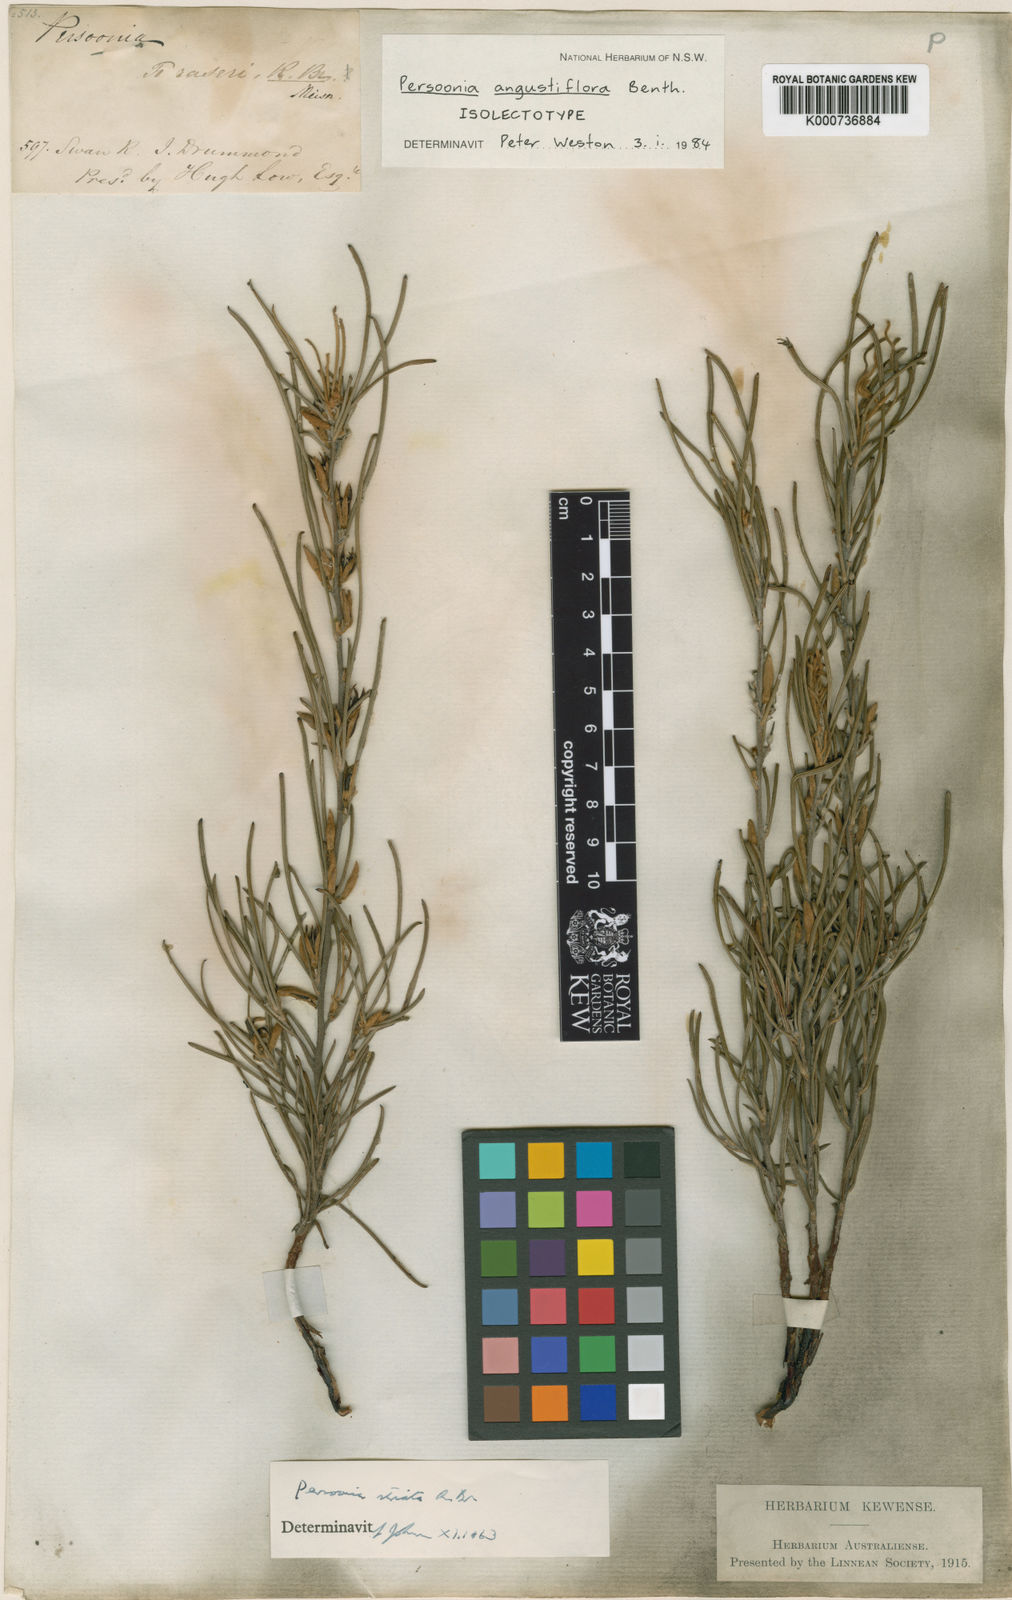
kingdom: Plantae
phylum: Tracheophyta
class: Magnoliopsida
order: Proteales
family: Proteaceae
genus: Persoonia
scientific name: Persoonia angustiflora
